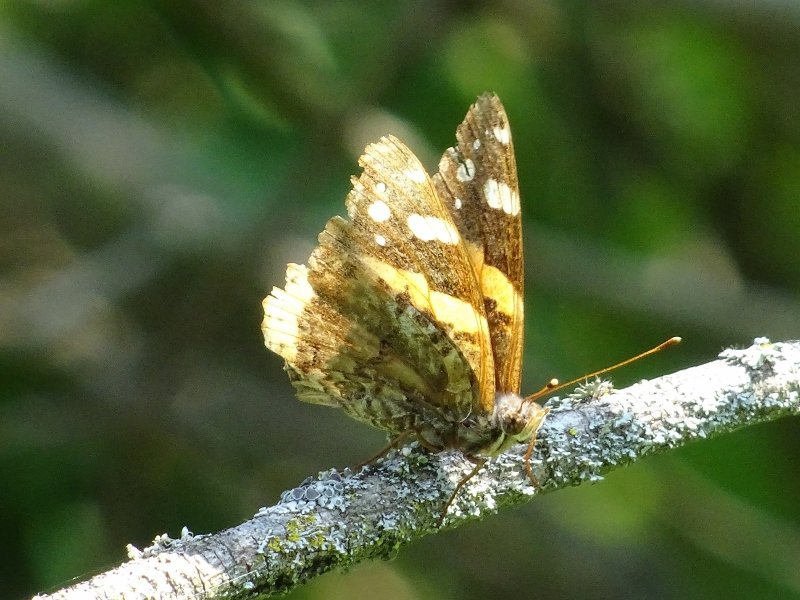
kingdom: Animalia
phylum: Arthropoda
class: Insecta
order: Lepidoptera
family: Nymphalidae
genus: Vanessa
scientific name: Vanessa atalanta
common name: Red Admiral
